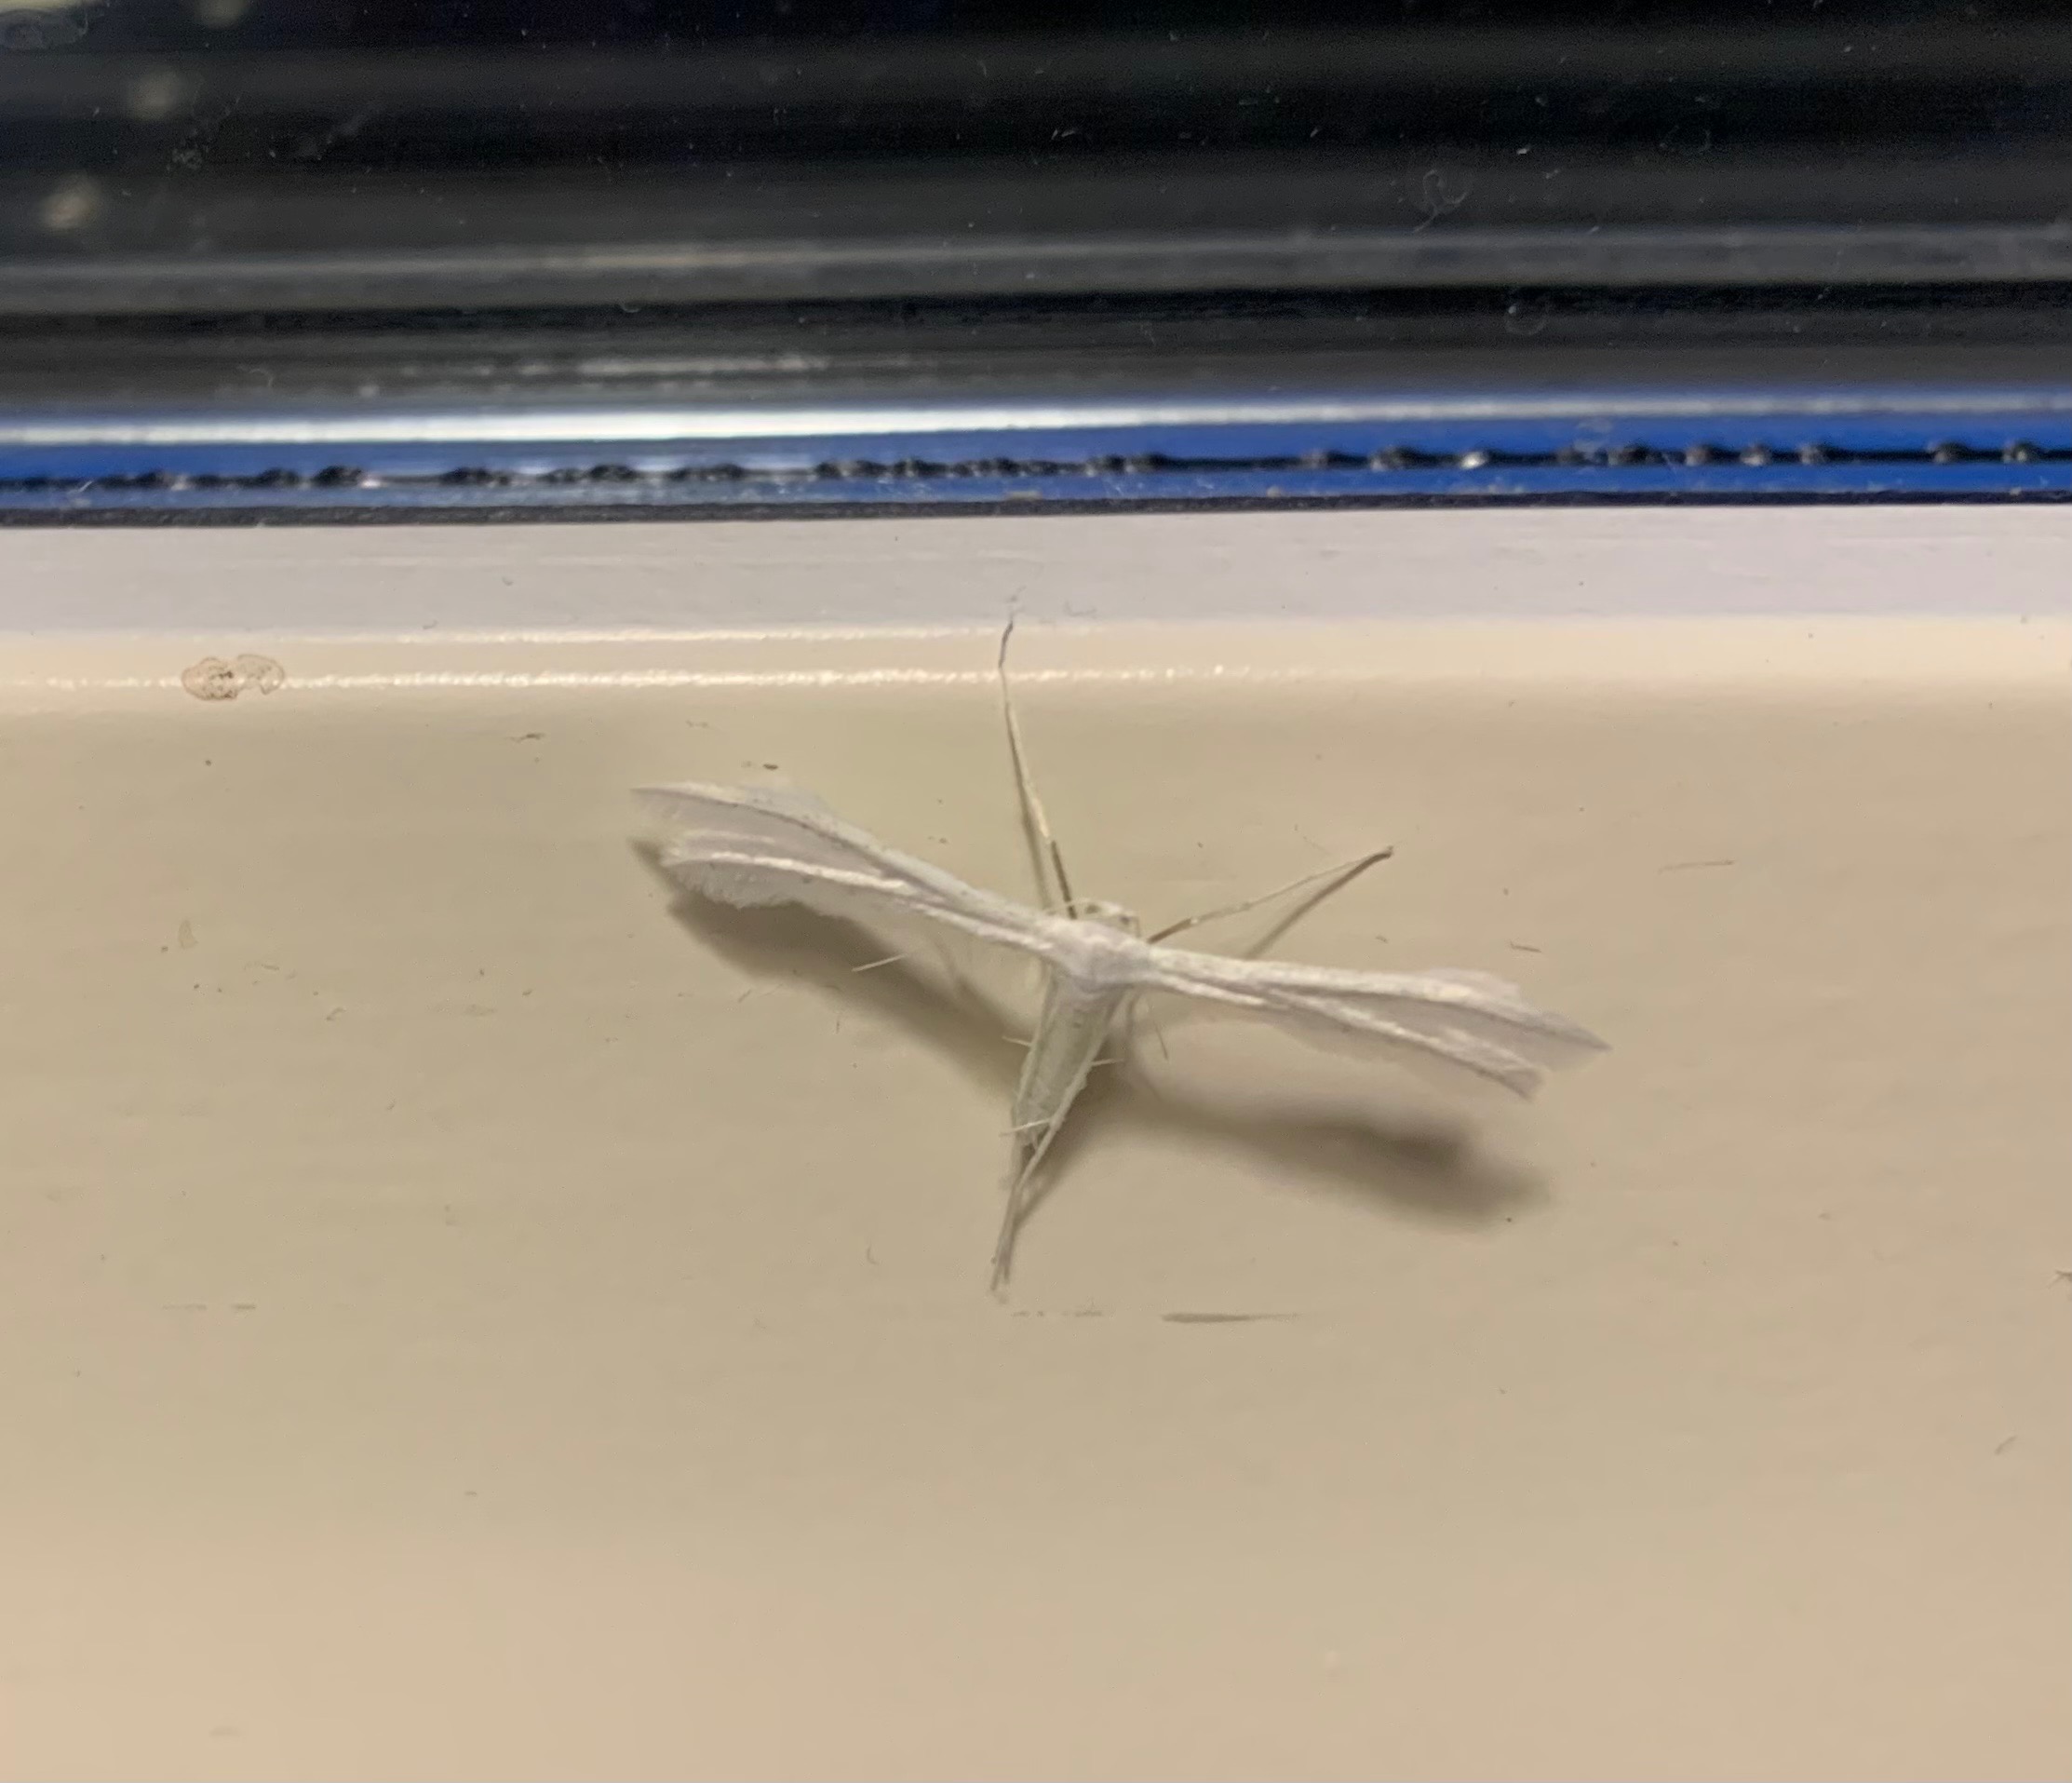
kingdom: Animalia
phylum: Arthropoda
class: Insecta
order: Lepidoptera
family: Pterophoridae
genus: Pterophorus
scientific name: Pterophorus pentadactyla
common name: Hvidt fjermøl
